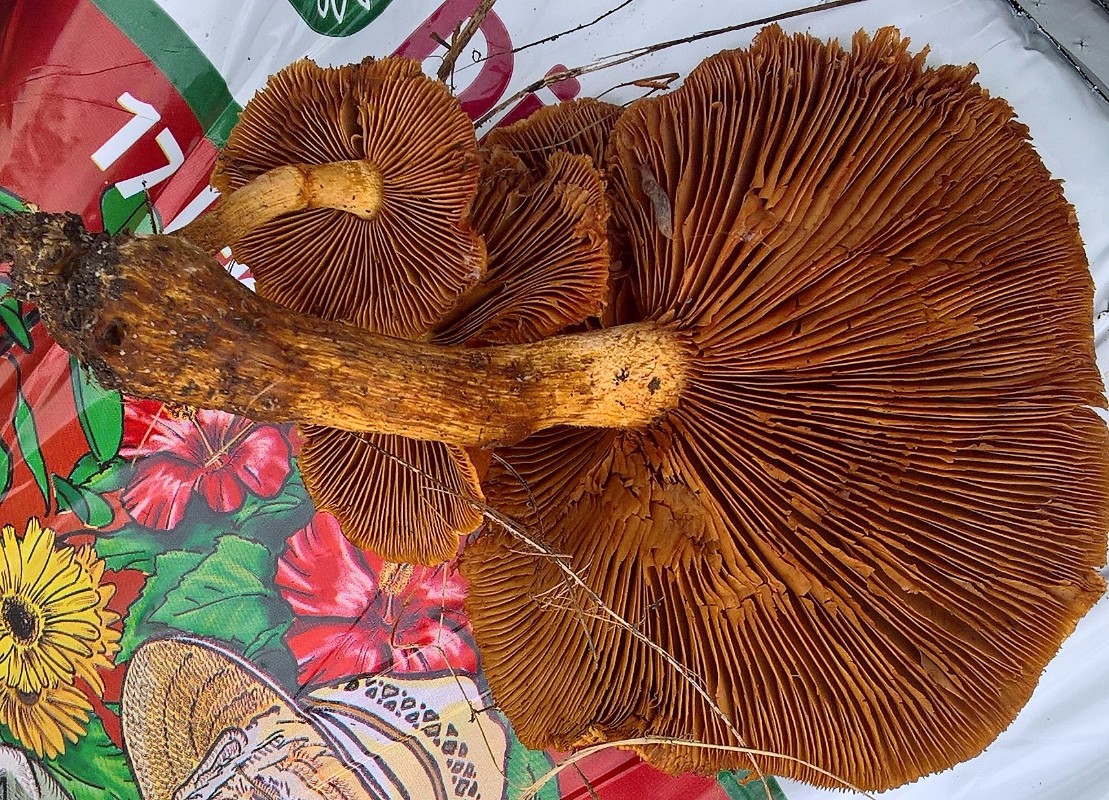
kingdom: Fungi
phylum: Basidiomycota
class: Agaricomycetes
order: Agaricales
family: Hymenogastraceae
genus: Gymnopilus
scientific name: Gymnopilus spectabilis
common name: fibret flammehat
